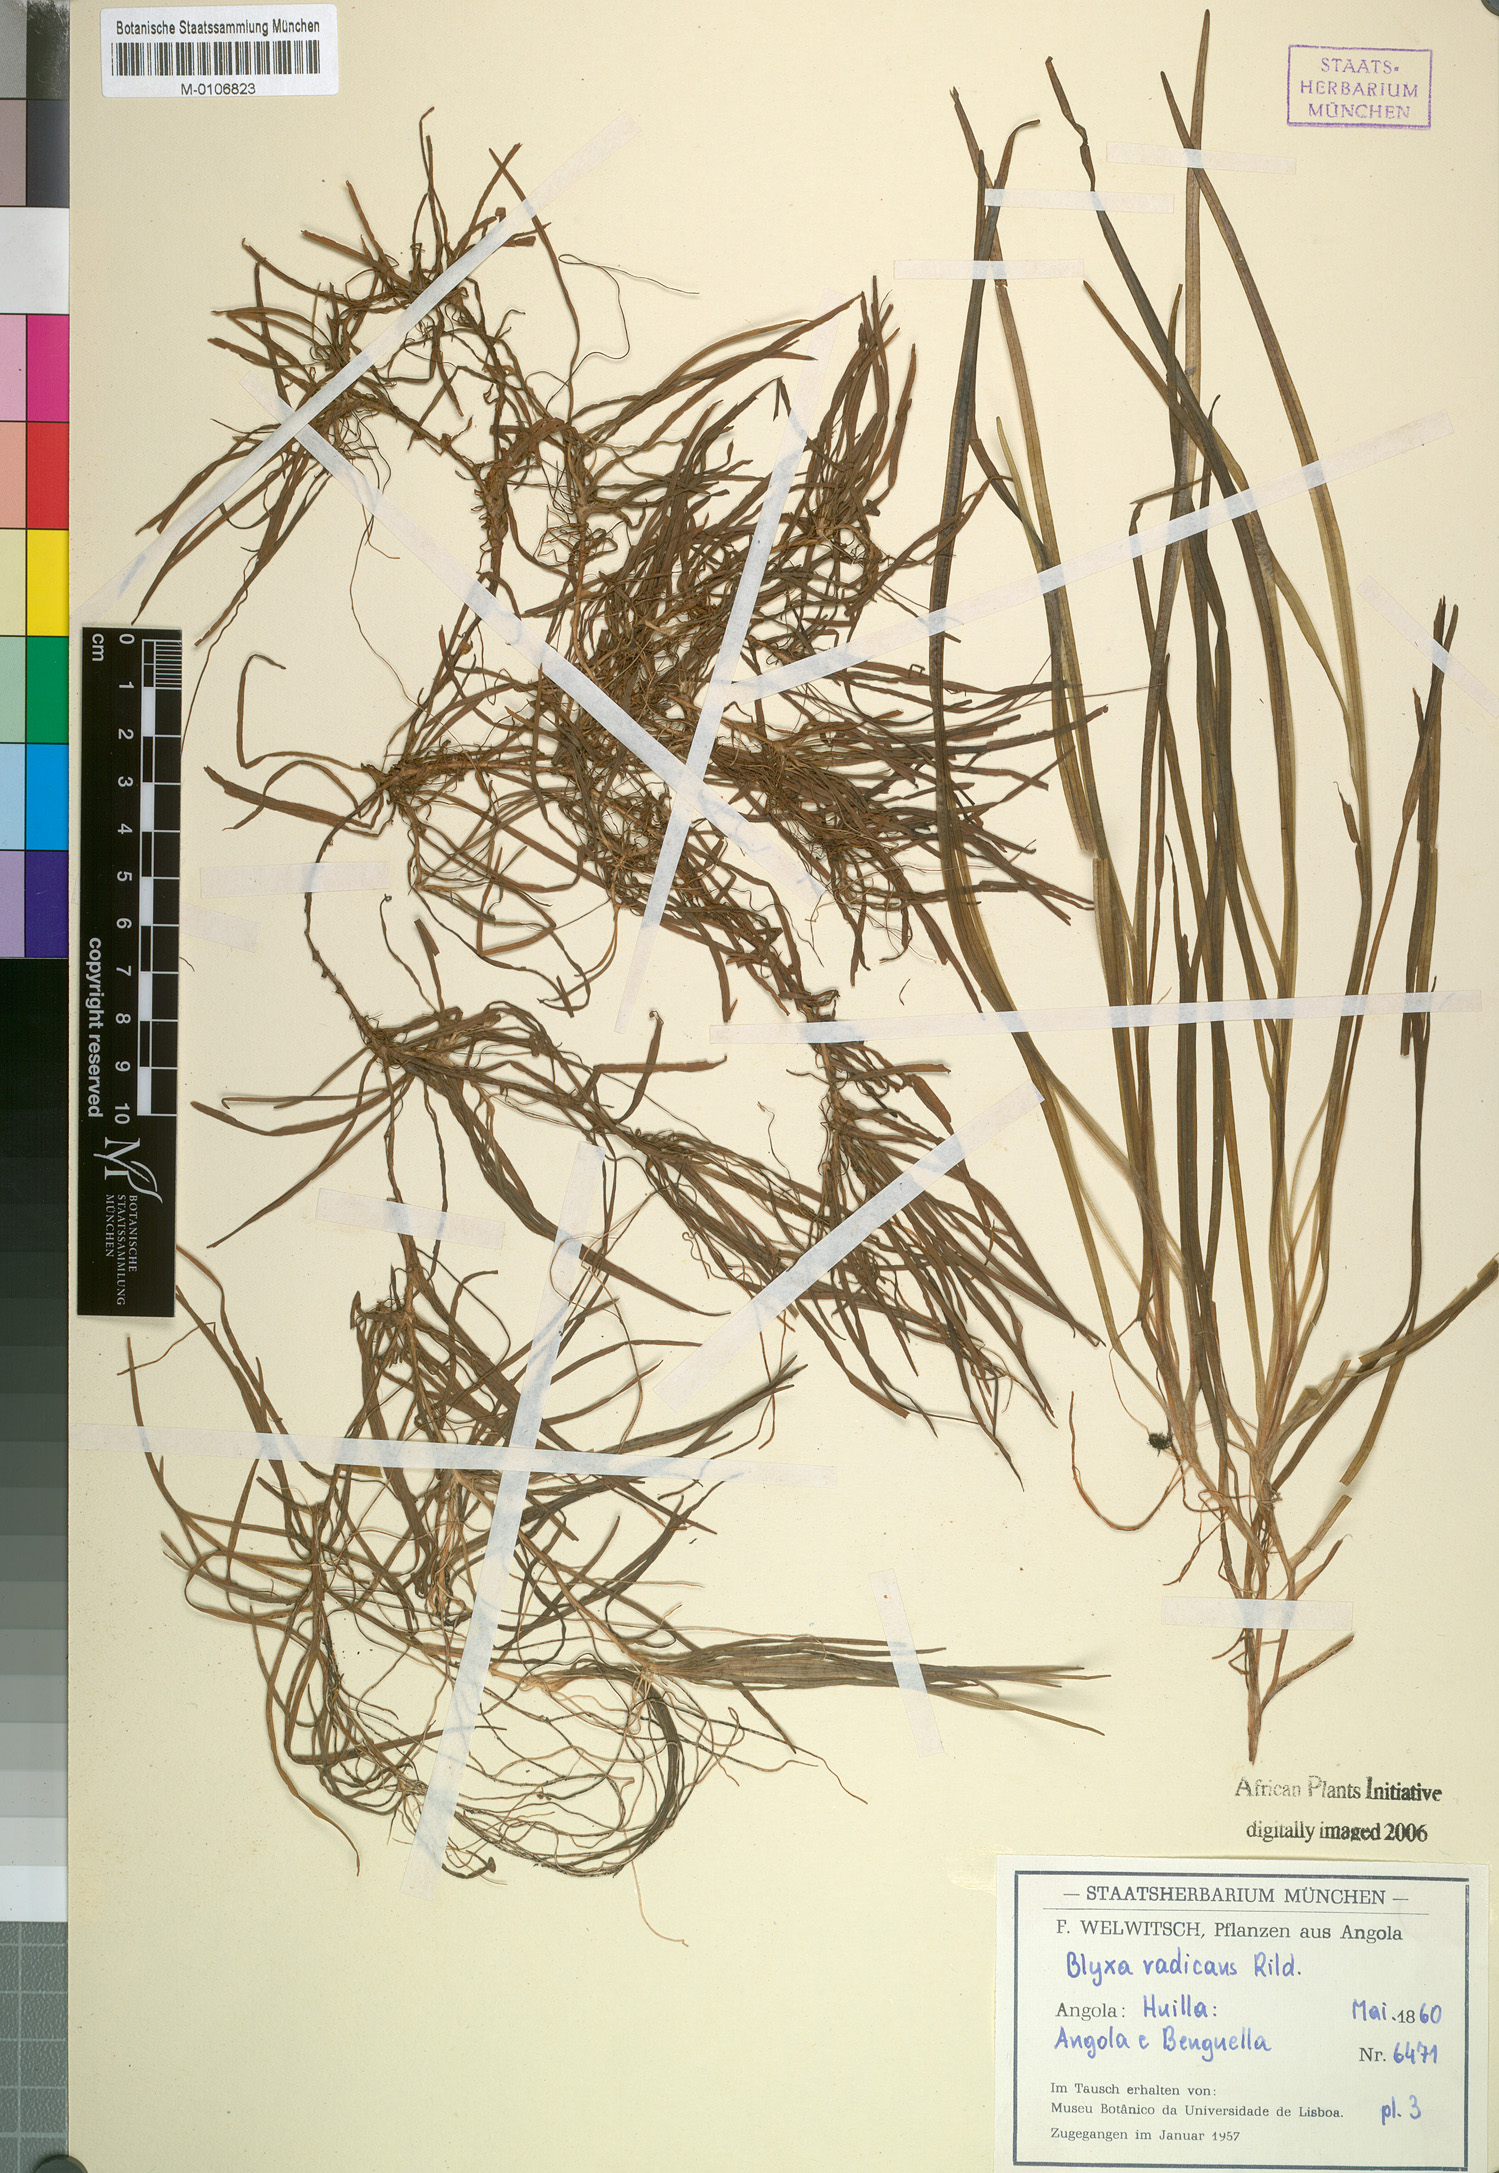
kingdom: Plantae
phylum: Tracheophyta
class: Liliopsida
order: Alismatales
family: Hydrocharitaceae
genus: Blyxa
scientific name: Blyxa radicans
